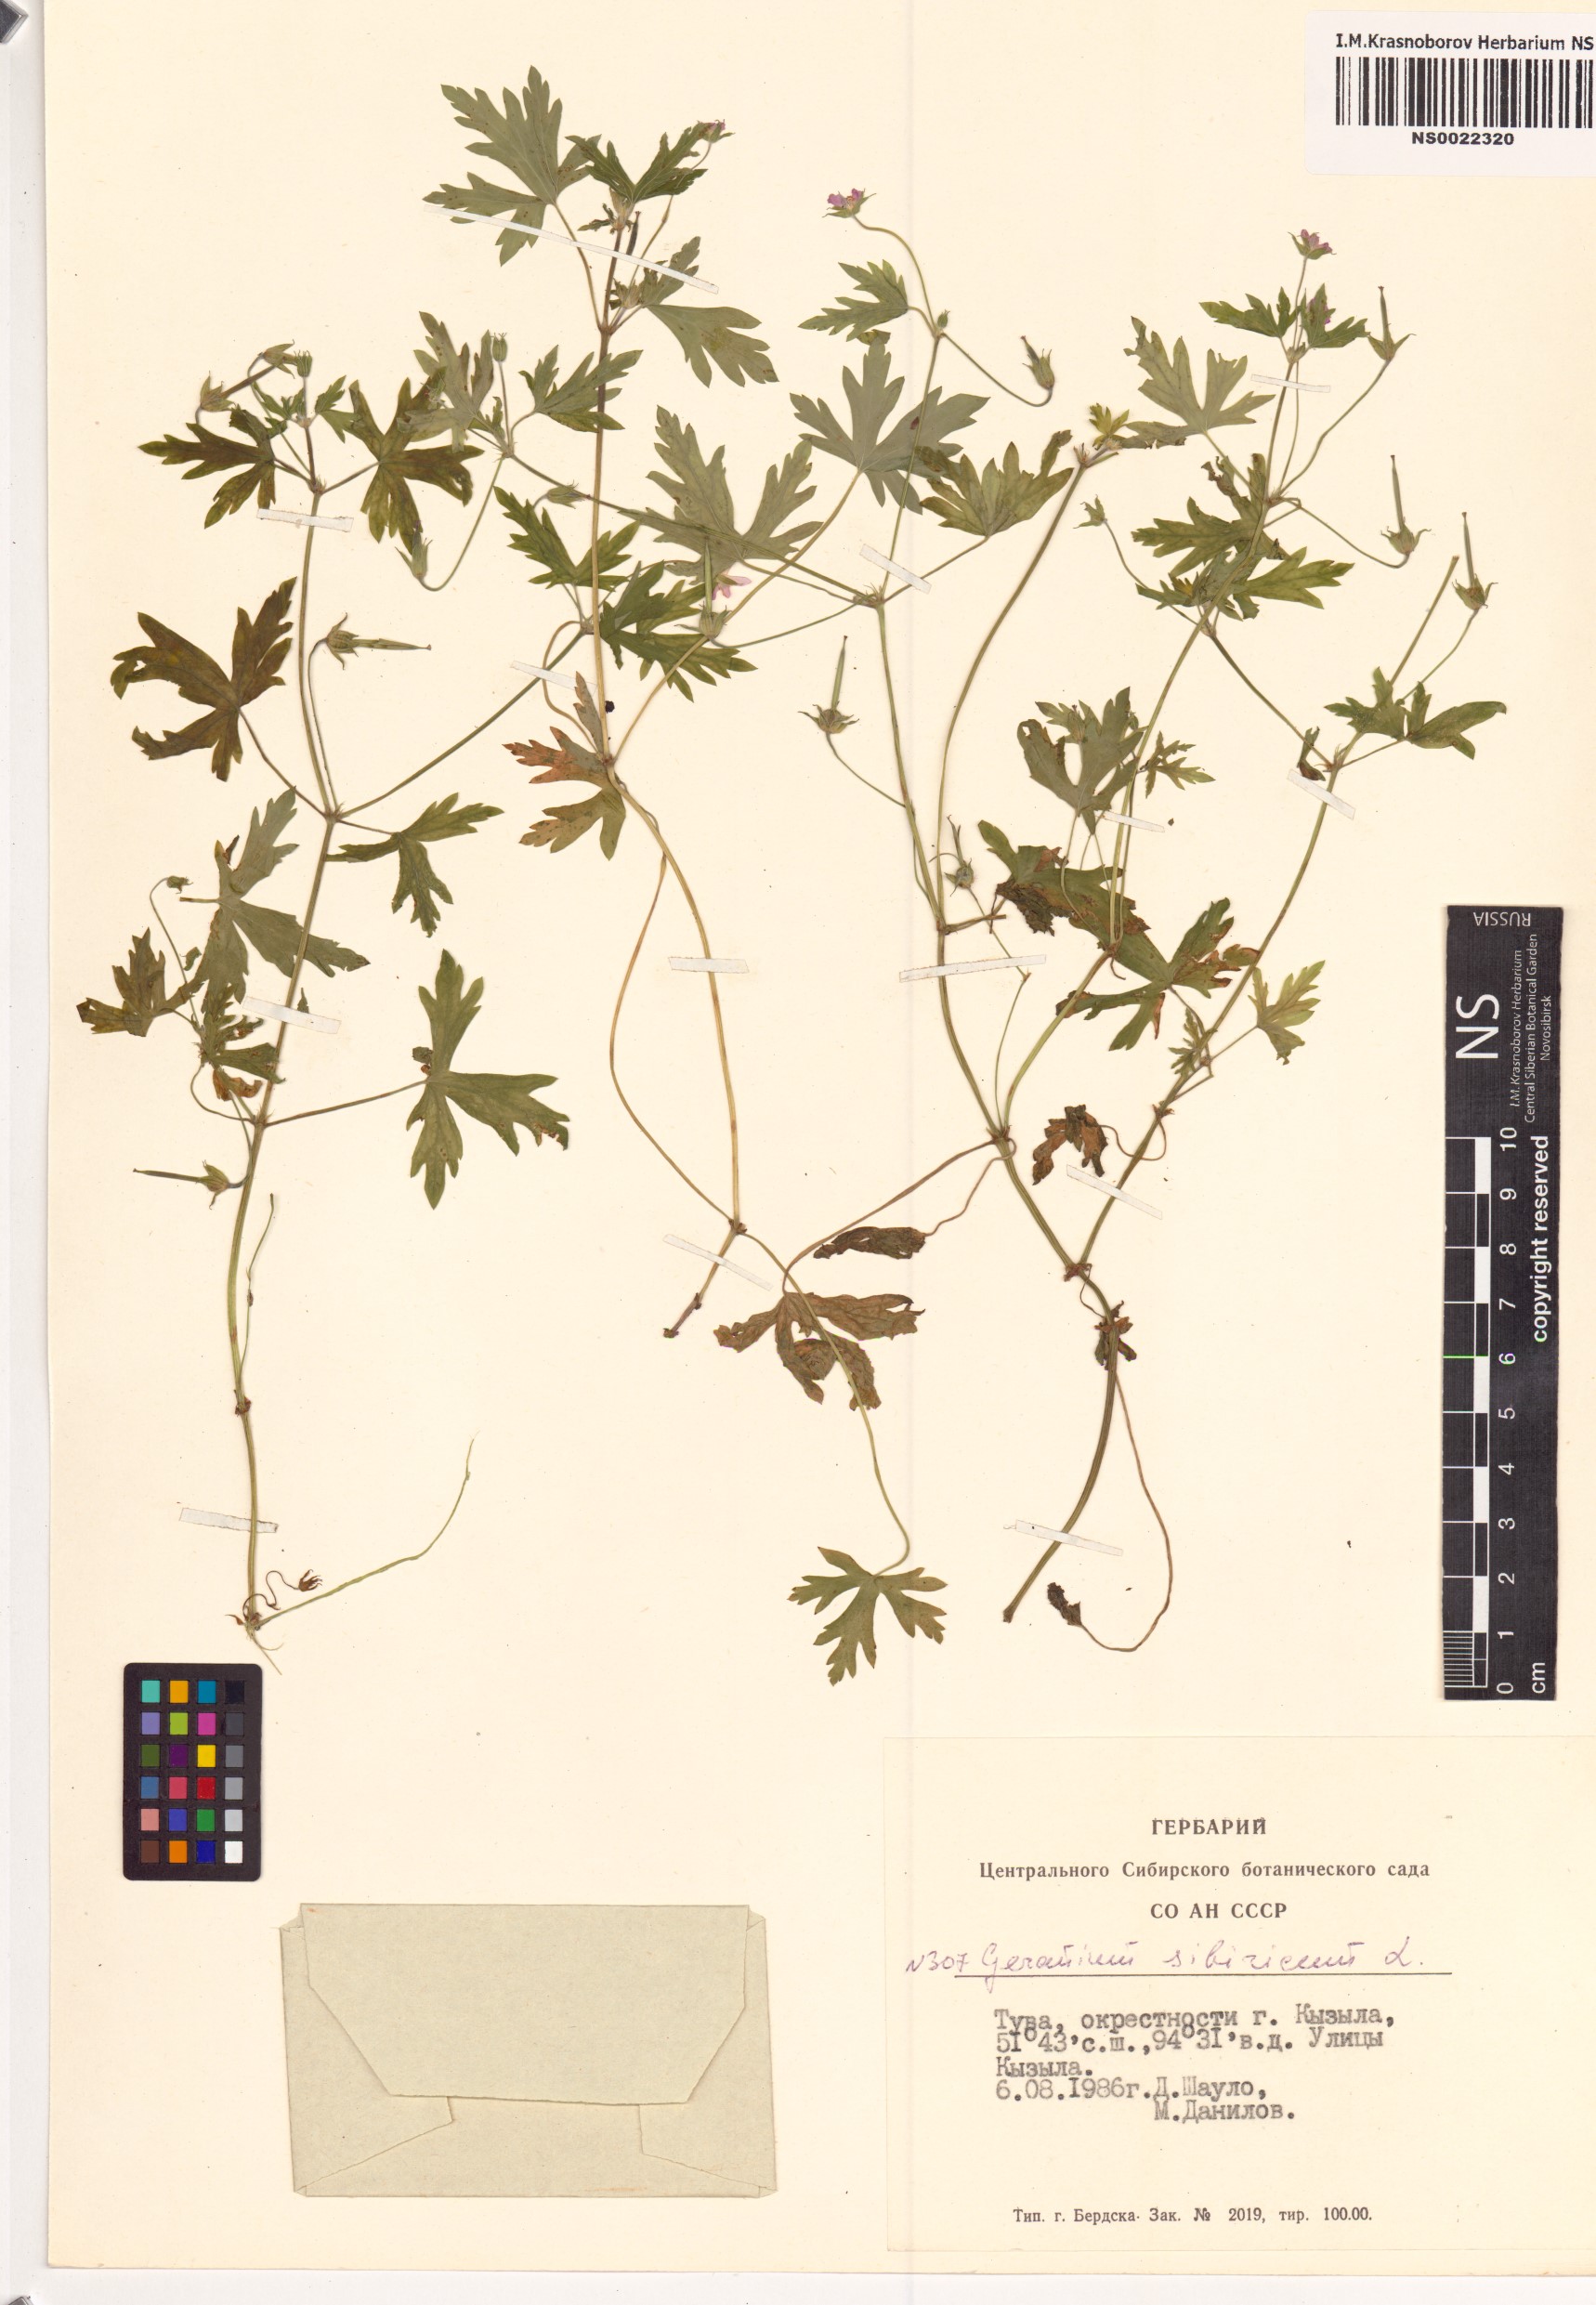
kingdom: Plantae
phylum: Tracheophyta
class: Magnoliopsida
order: Geraniales
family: Geraniaceae
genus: Geranium
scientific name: Geranium sibiricum
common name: Siberian crane's-bill
